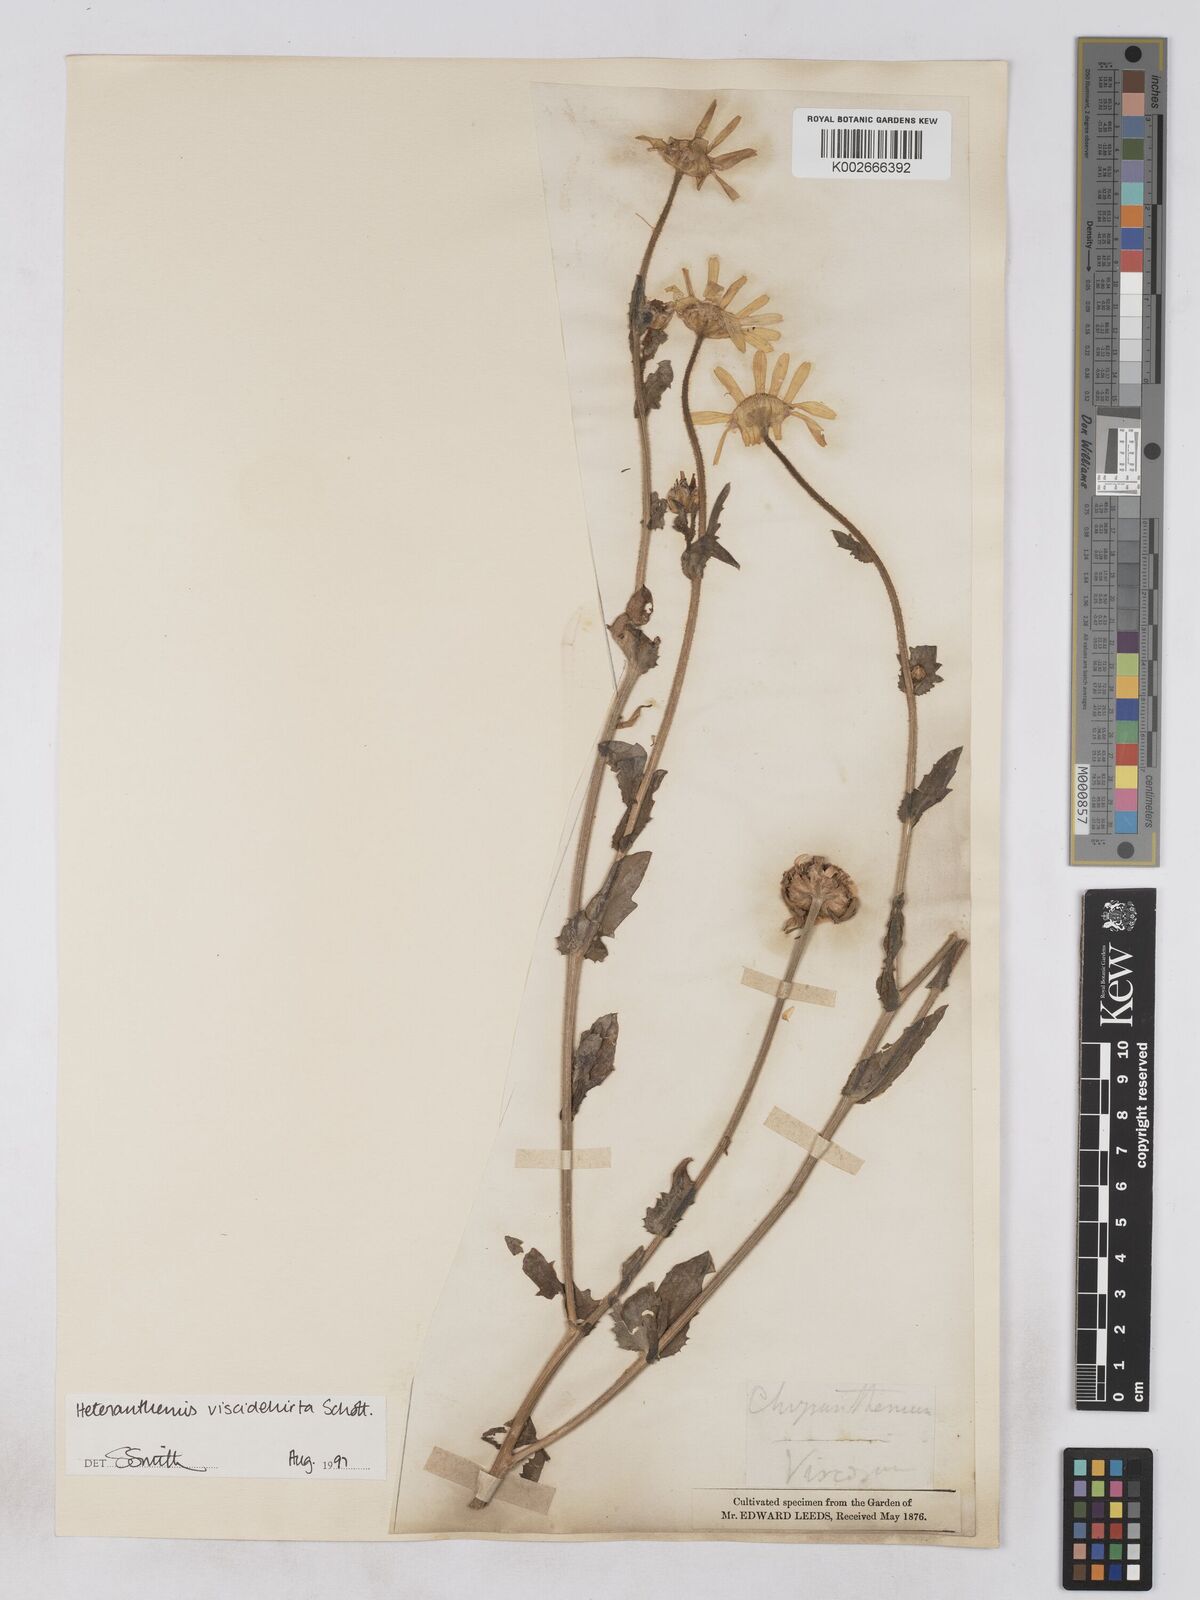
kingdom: Plantae
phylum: Tracheophyta
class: Magnoliopsida
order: Asterales
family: Asteraceae
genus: Heteranthemis
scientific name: Heteranthemis
